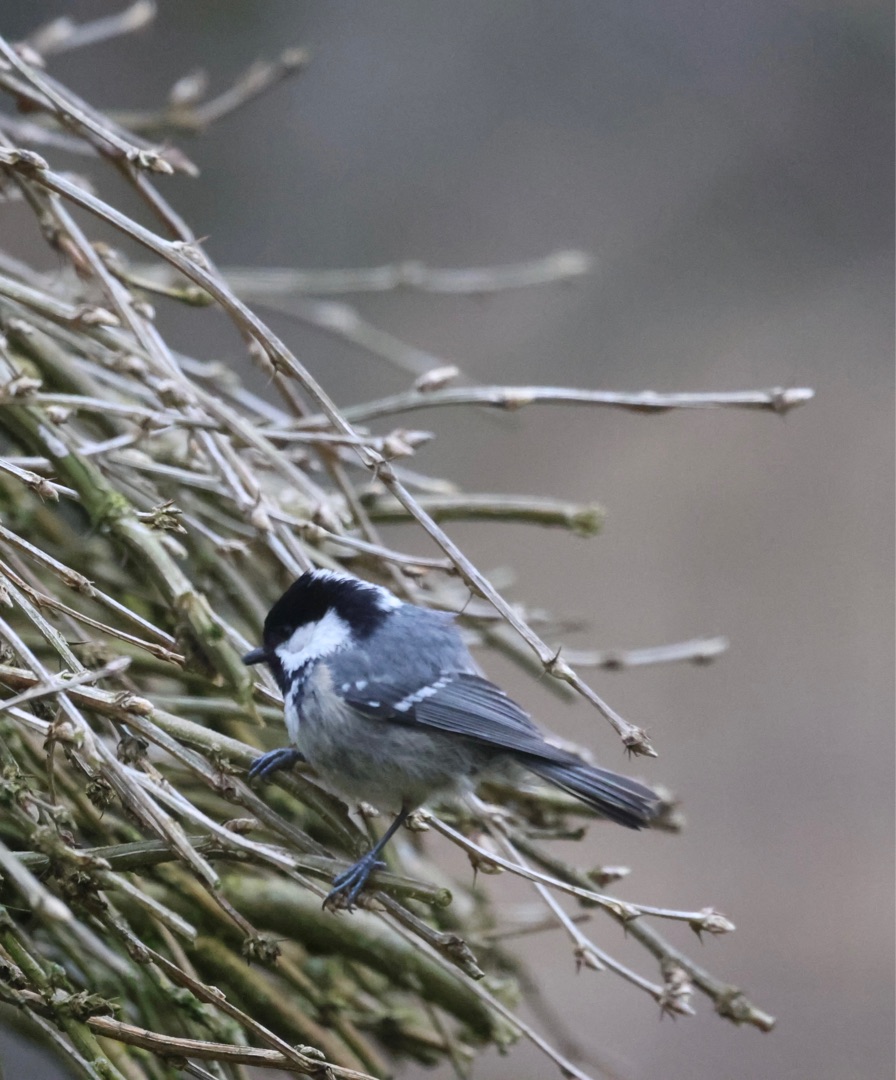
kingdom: Animalia
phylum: Chordata
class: Aves
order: Passeriformes
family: Paridae
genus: Periparus
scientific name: Periparus ater
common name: Sortmejse
